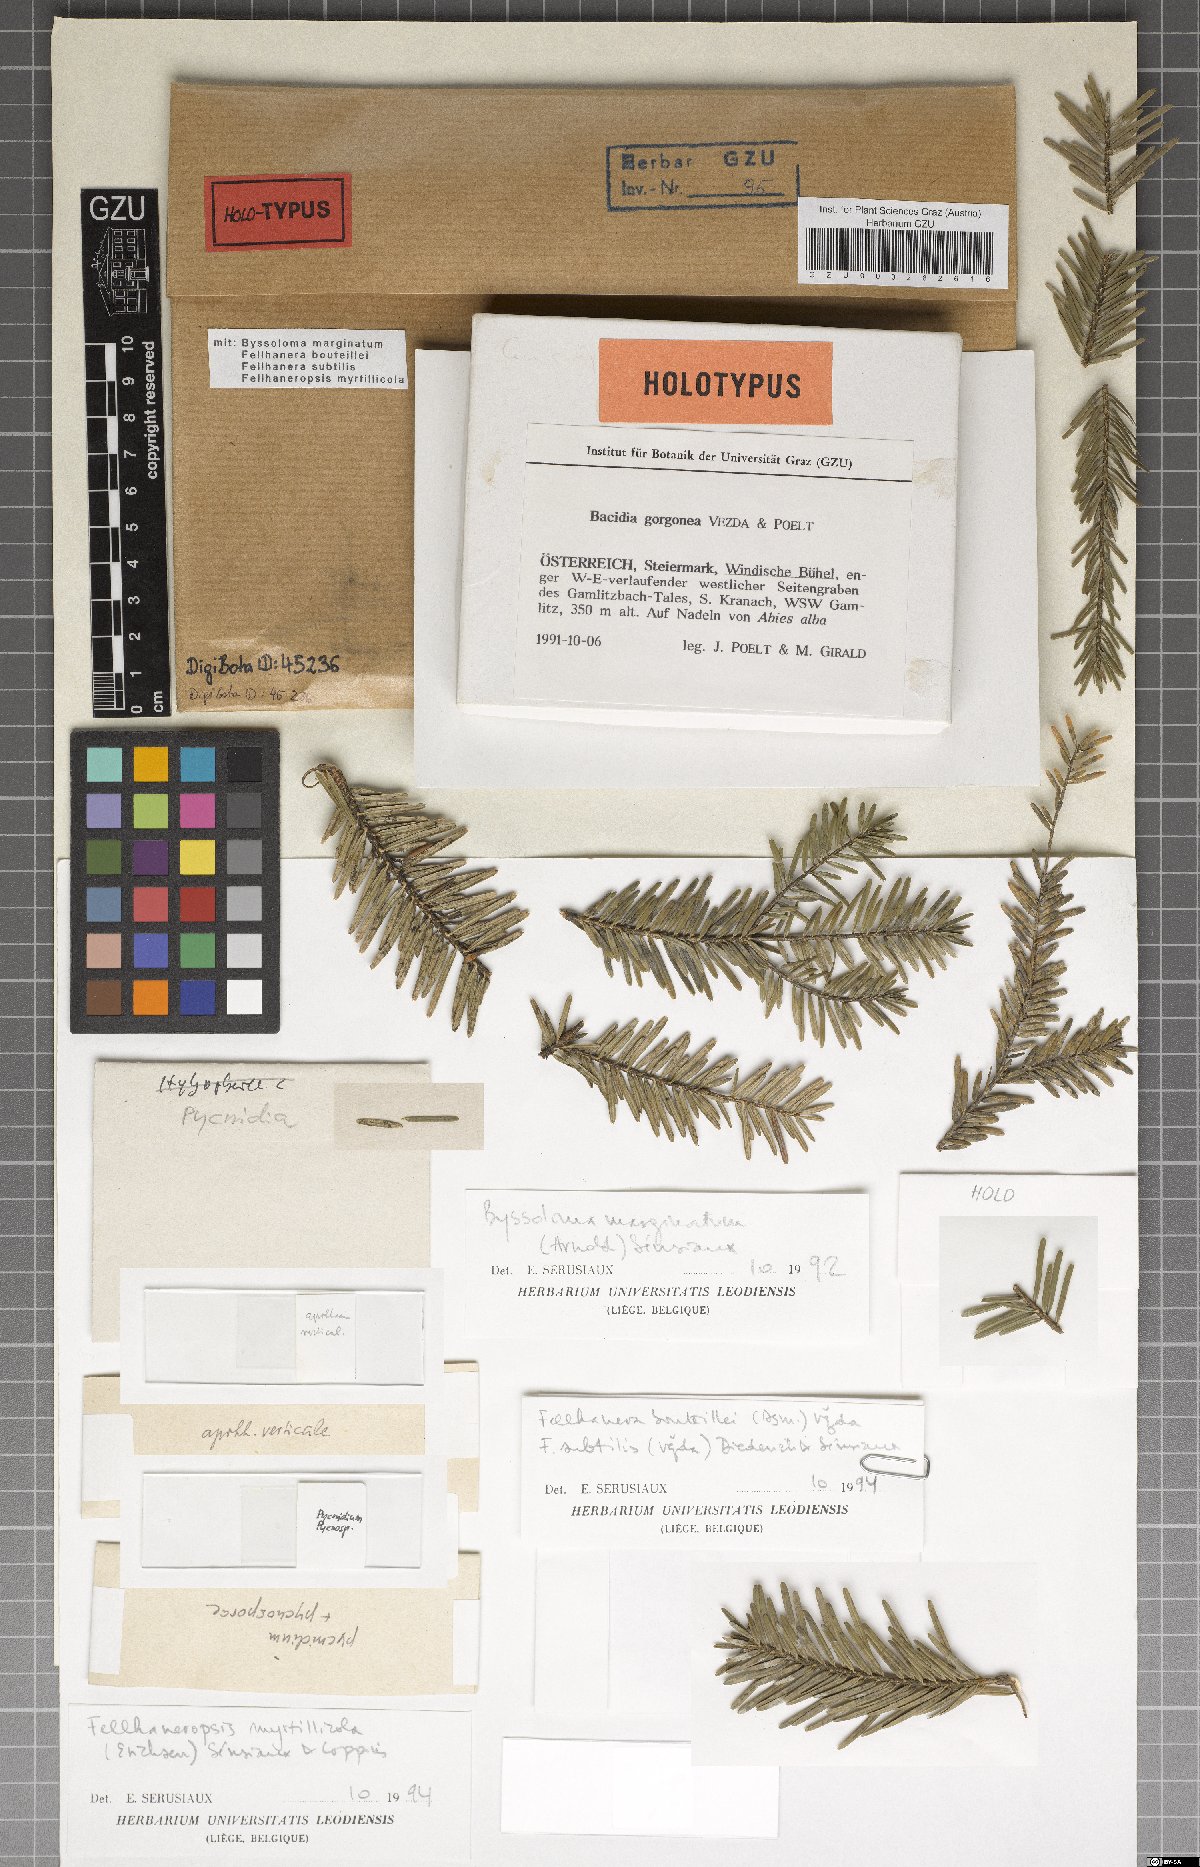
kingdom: Fungi
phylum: Ascomycota
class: Lecanoromycetes
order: Lecanorales
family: Ramalinaceae
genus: Bacidia
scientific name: Bacidia gorgonea
